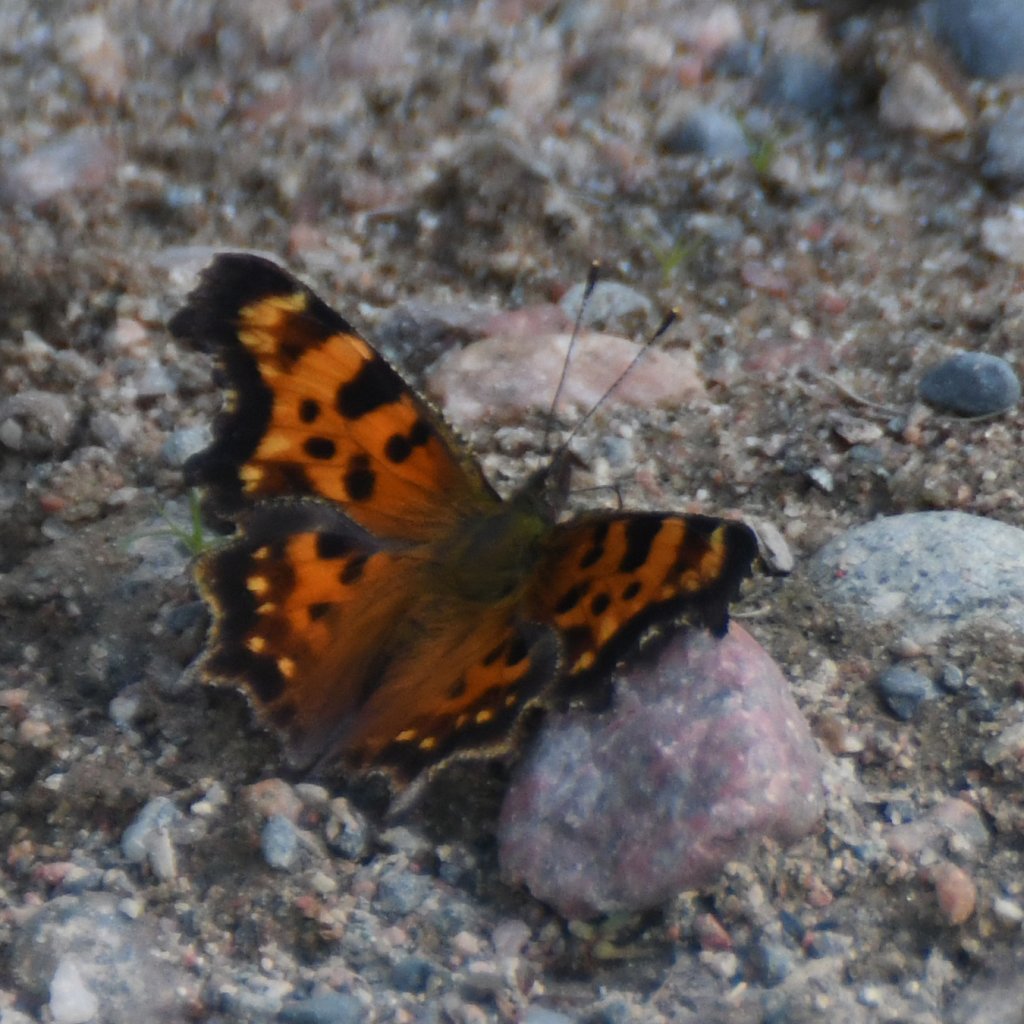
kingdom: Animalia
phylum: Arthropoda
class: Insecta
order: Lepidoptera
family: Nymphalidae
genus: Polygonia
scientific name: Polygonia faunus
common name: Green Comma
